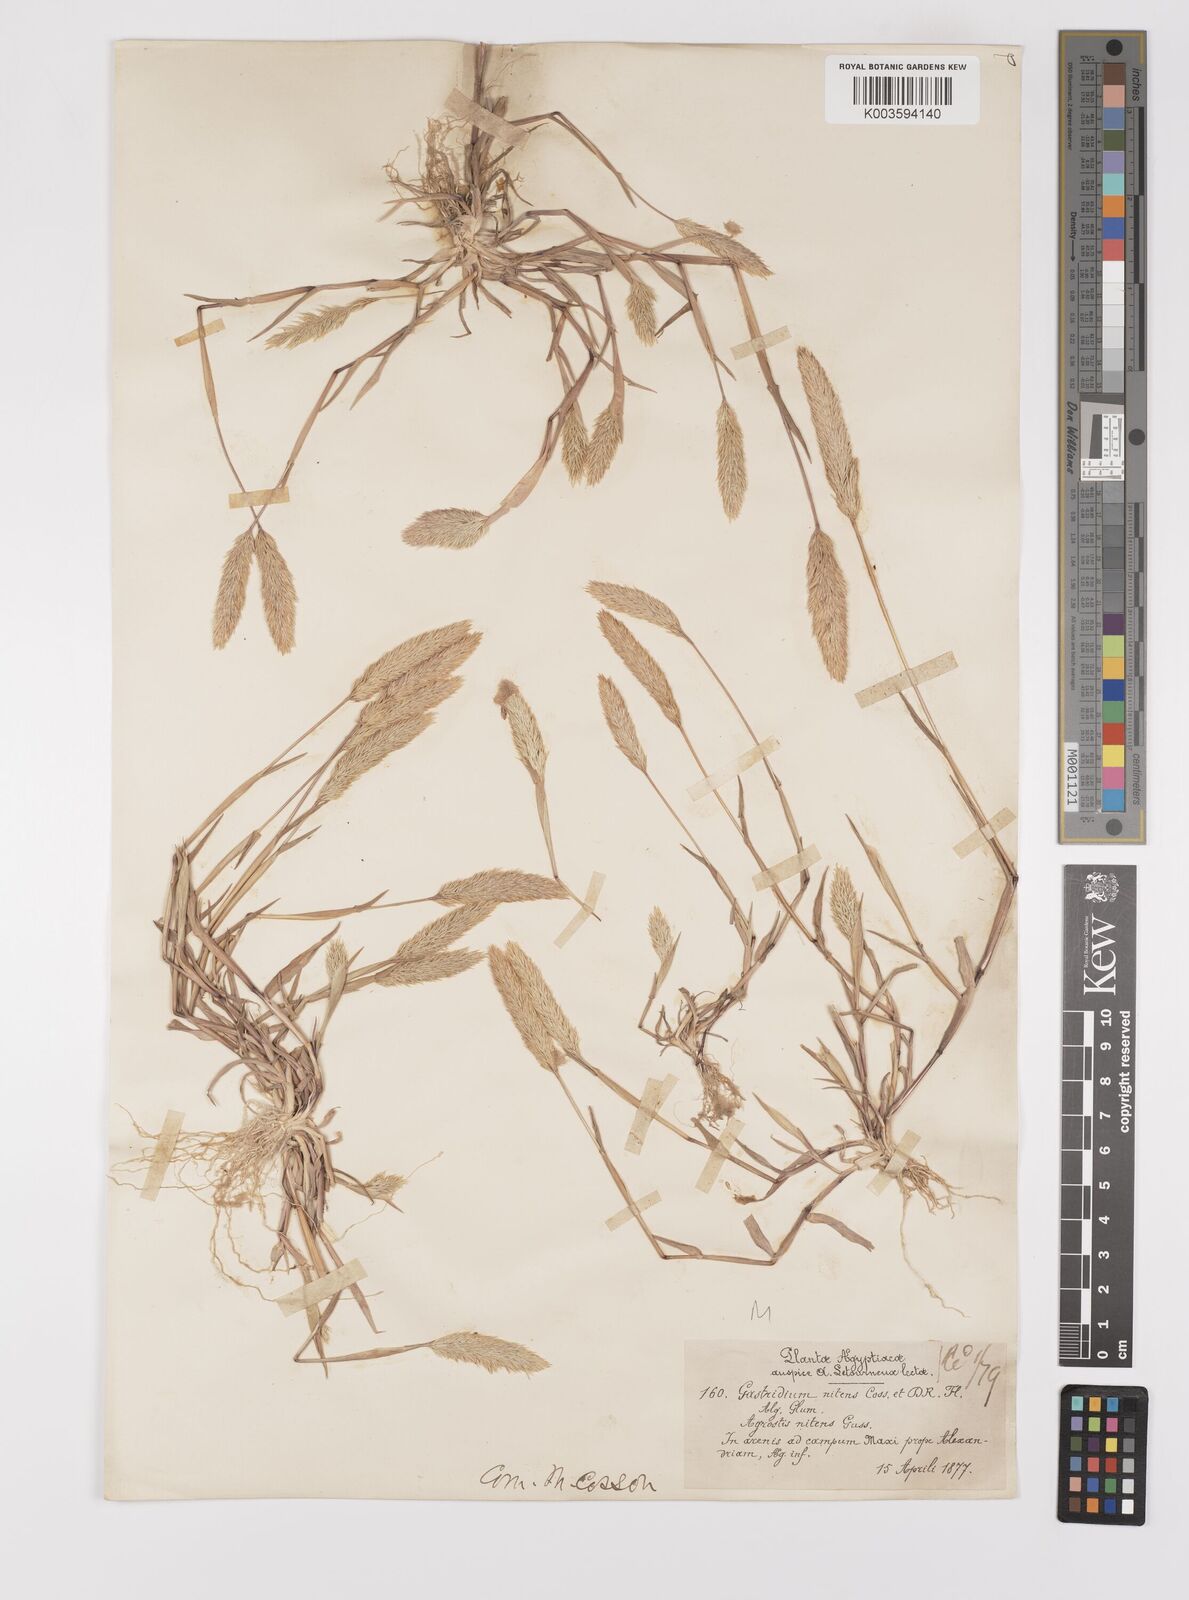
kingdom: Plantae
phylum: Tracheophyta
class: Liliopsida
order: Poales
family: Poaceae
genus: Triplachne
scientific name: Triplachne nitens
